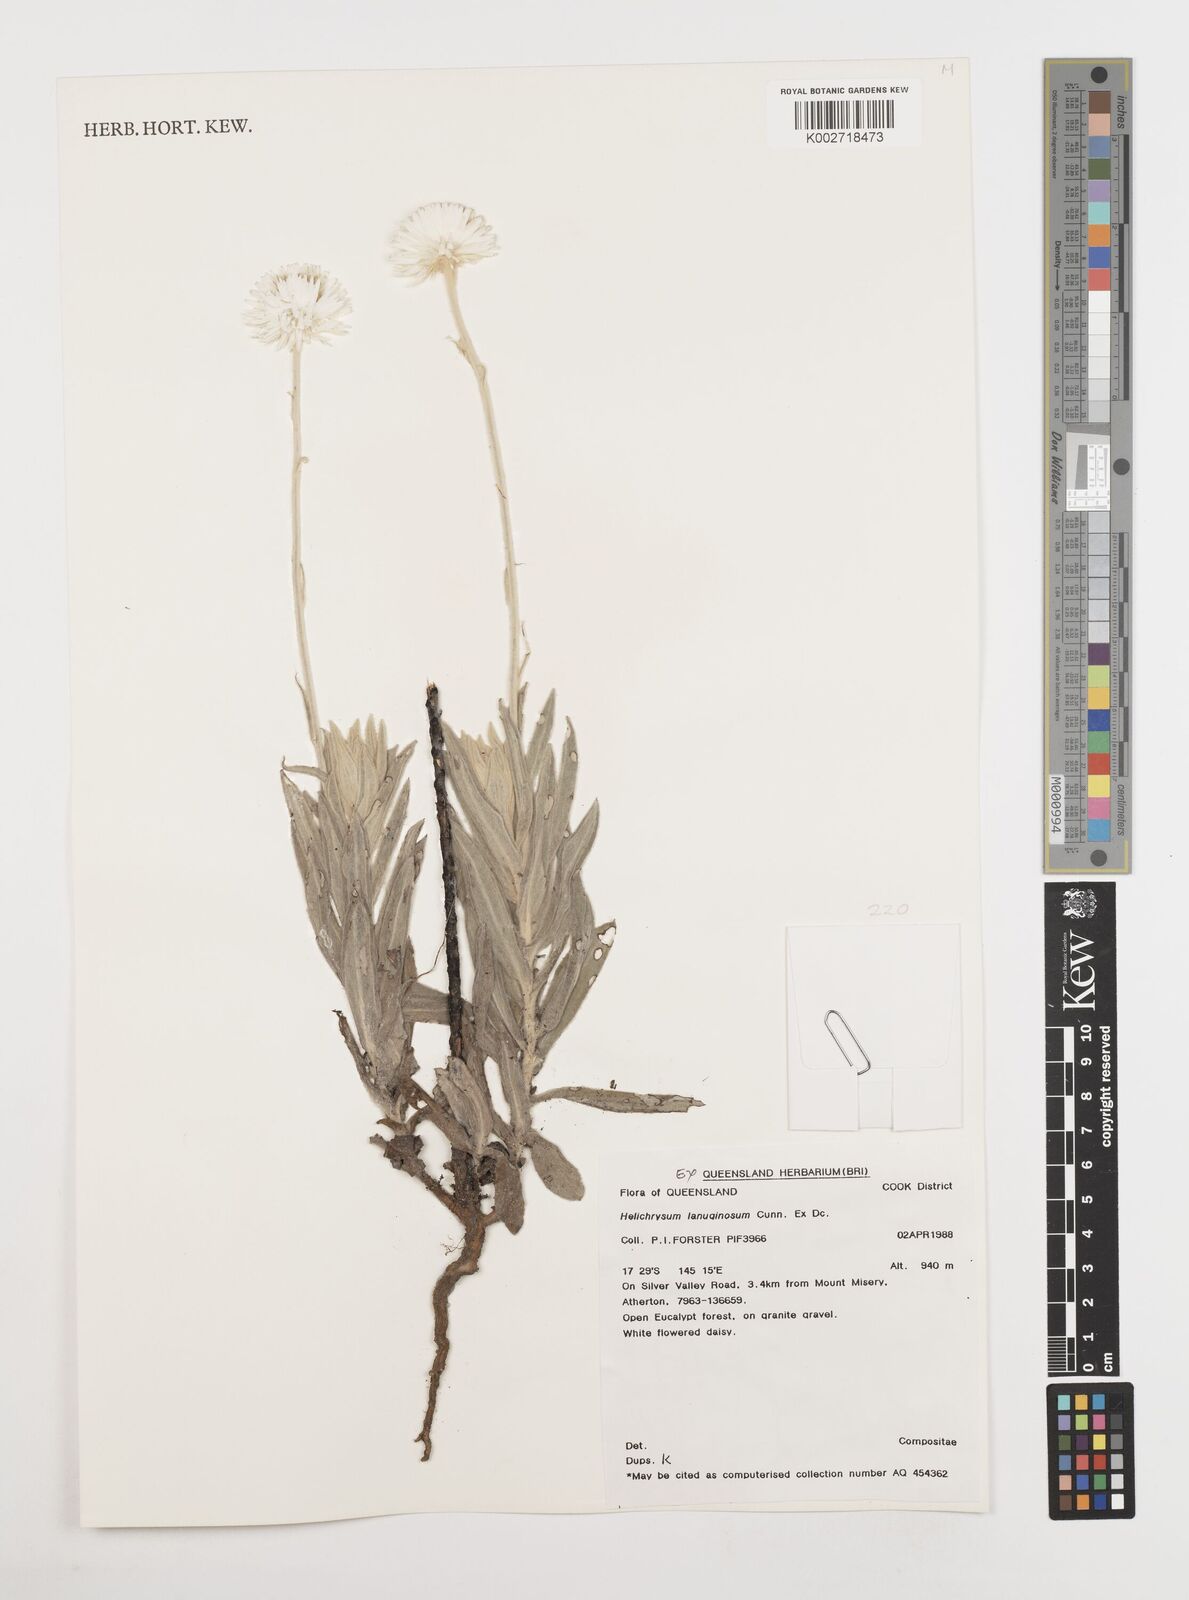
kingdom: Plantae
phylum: Tracheophyta
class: Magnoliopsida
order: Asterales
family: Asteraceae
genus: Coronidium
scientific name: Coronidium lanuginosum
